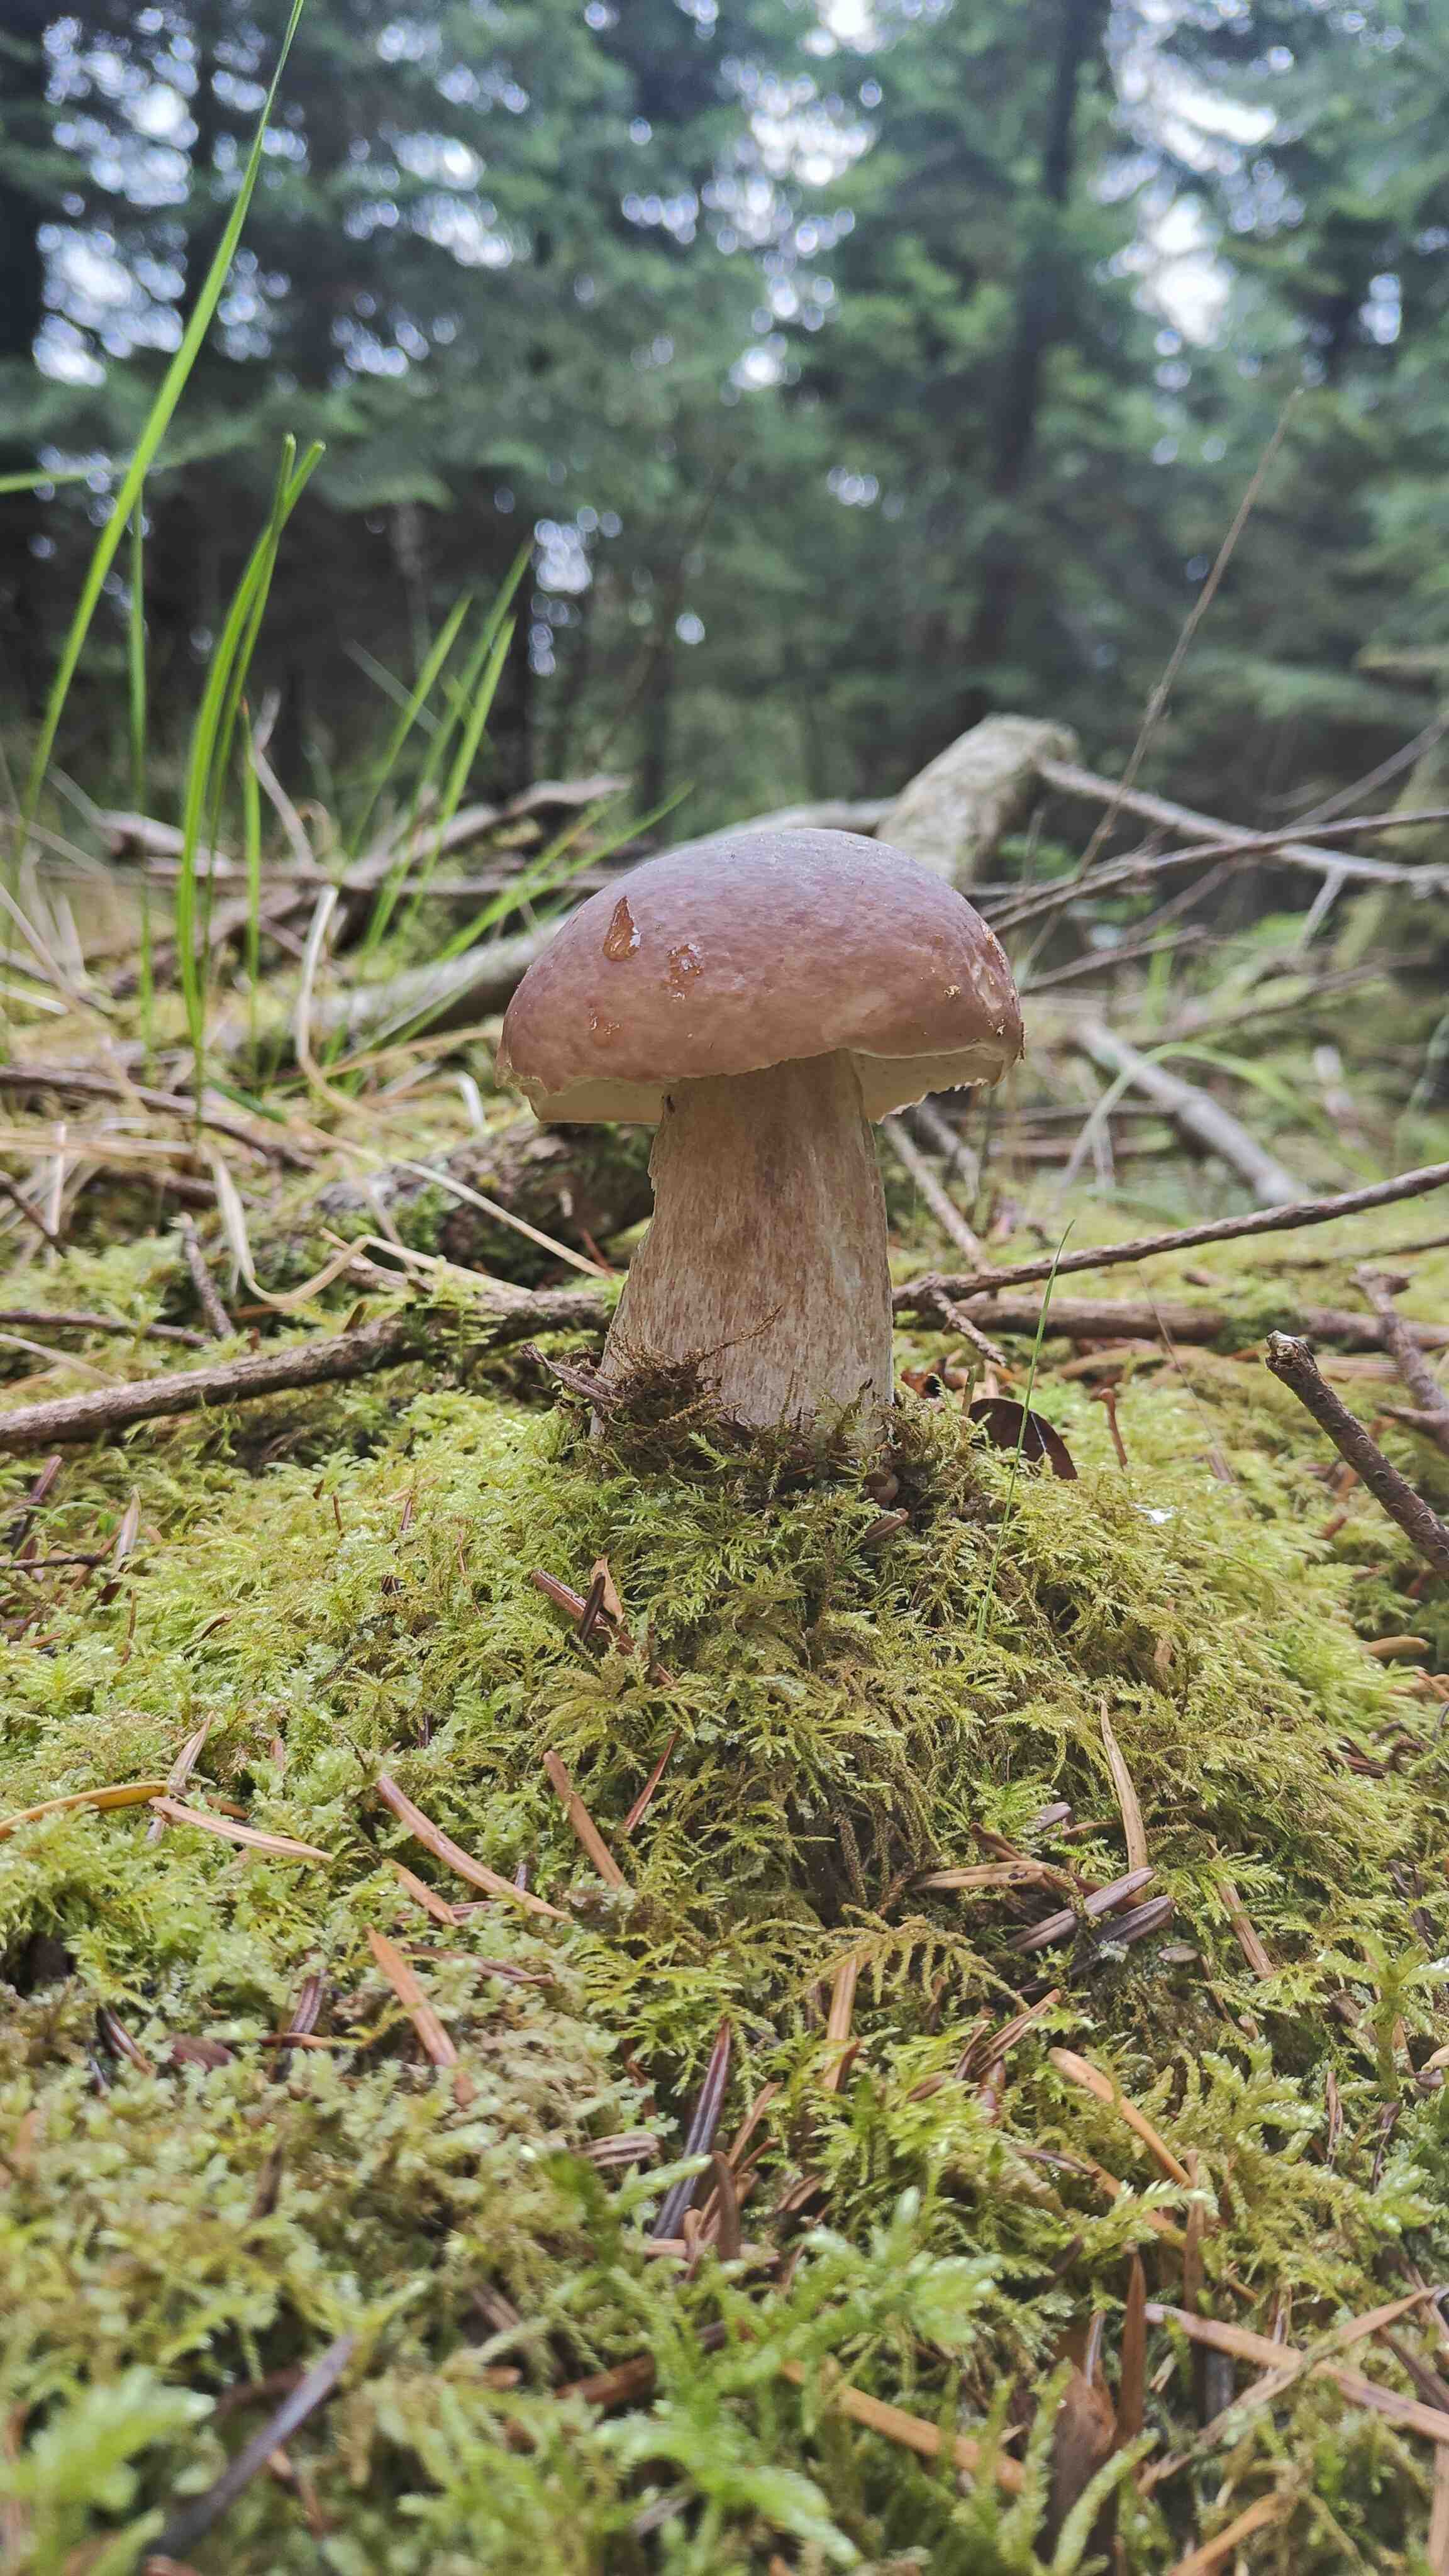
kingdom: Fungi
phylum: Basidiomycota
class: Agaricomycetes
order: Boletales
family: Boletaceae
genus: Boletus
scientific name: Boletus edulis
